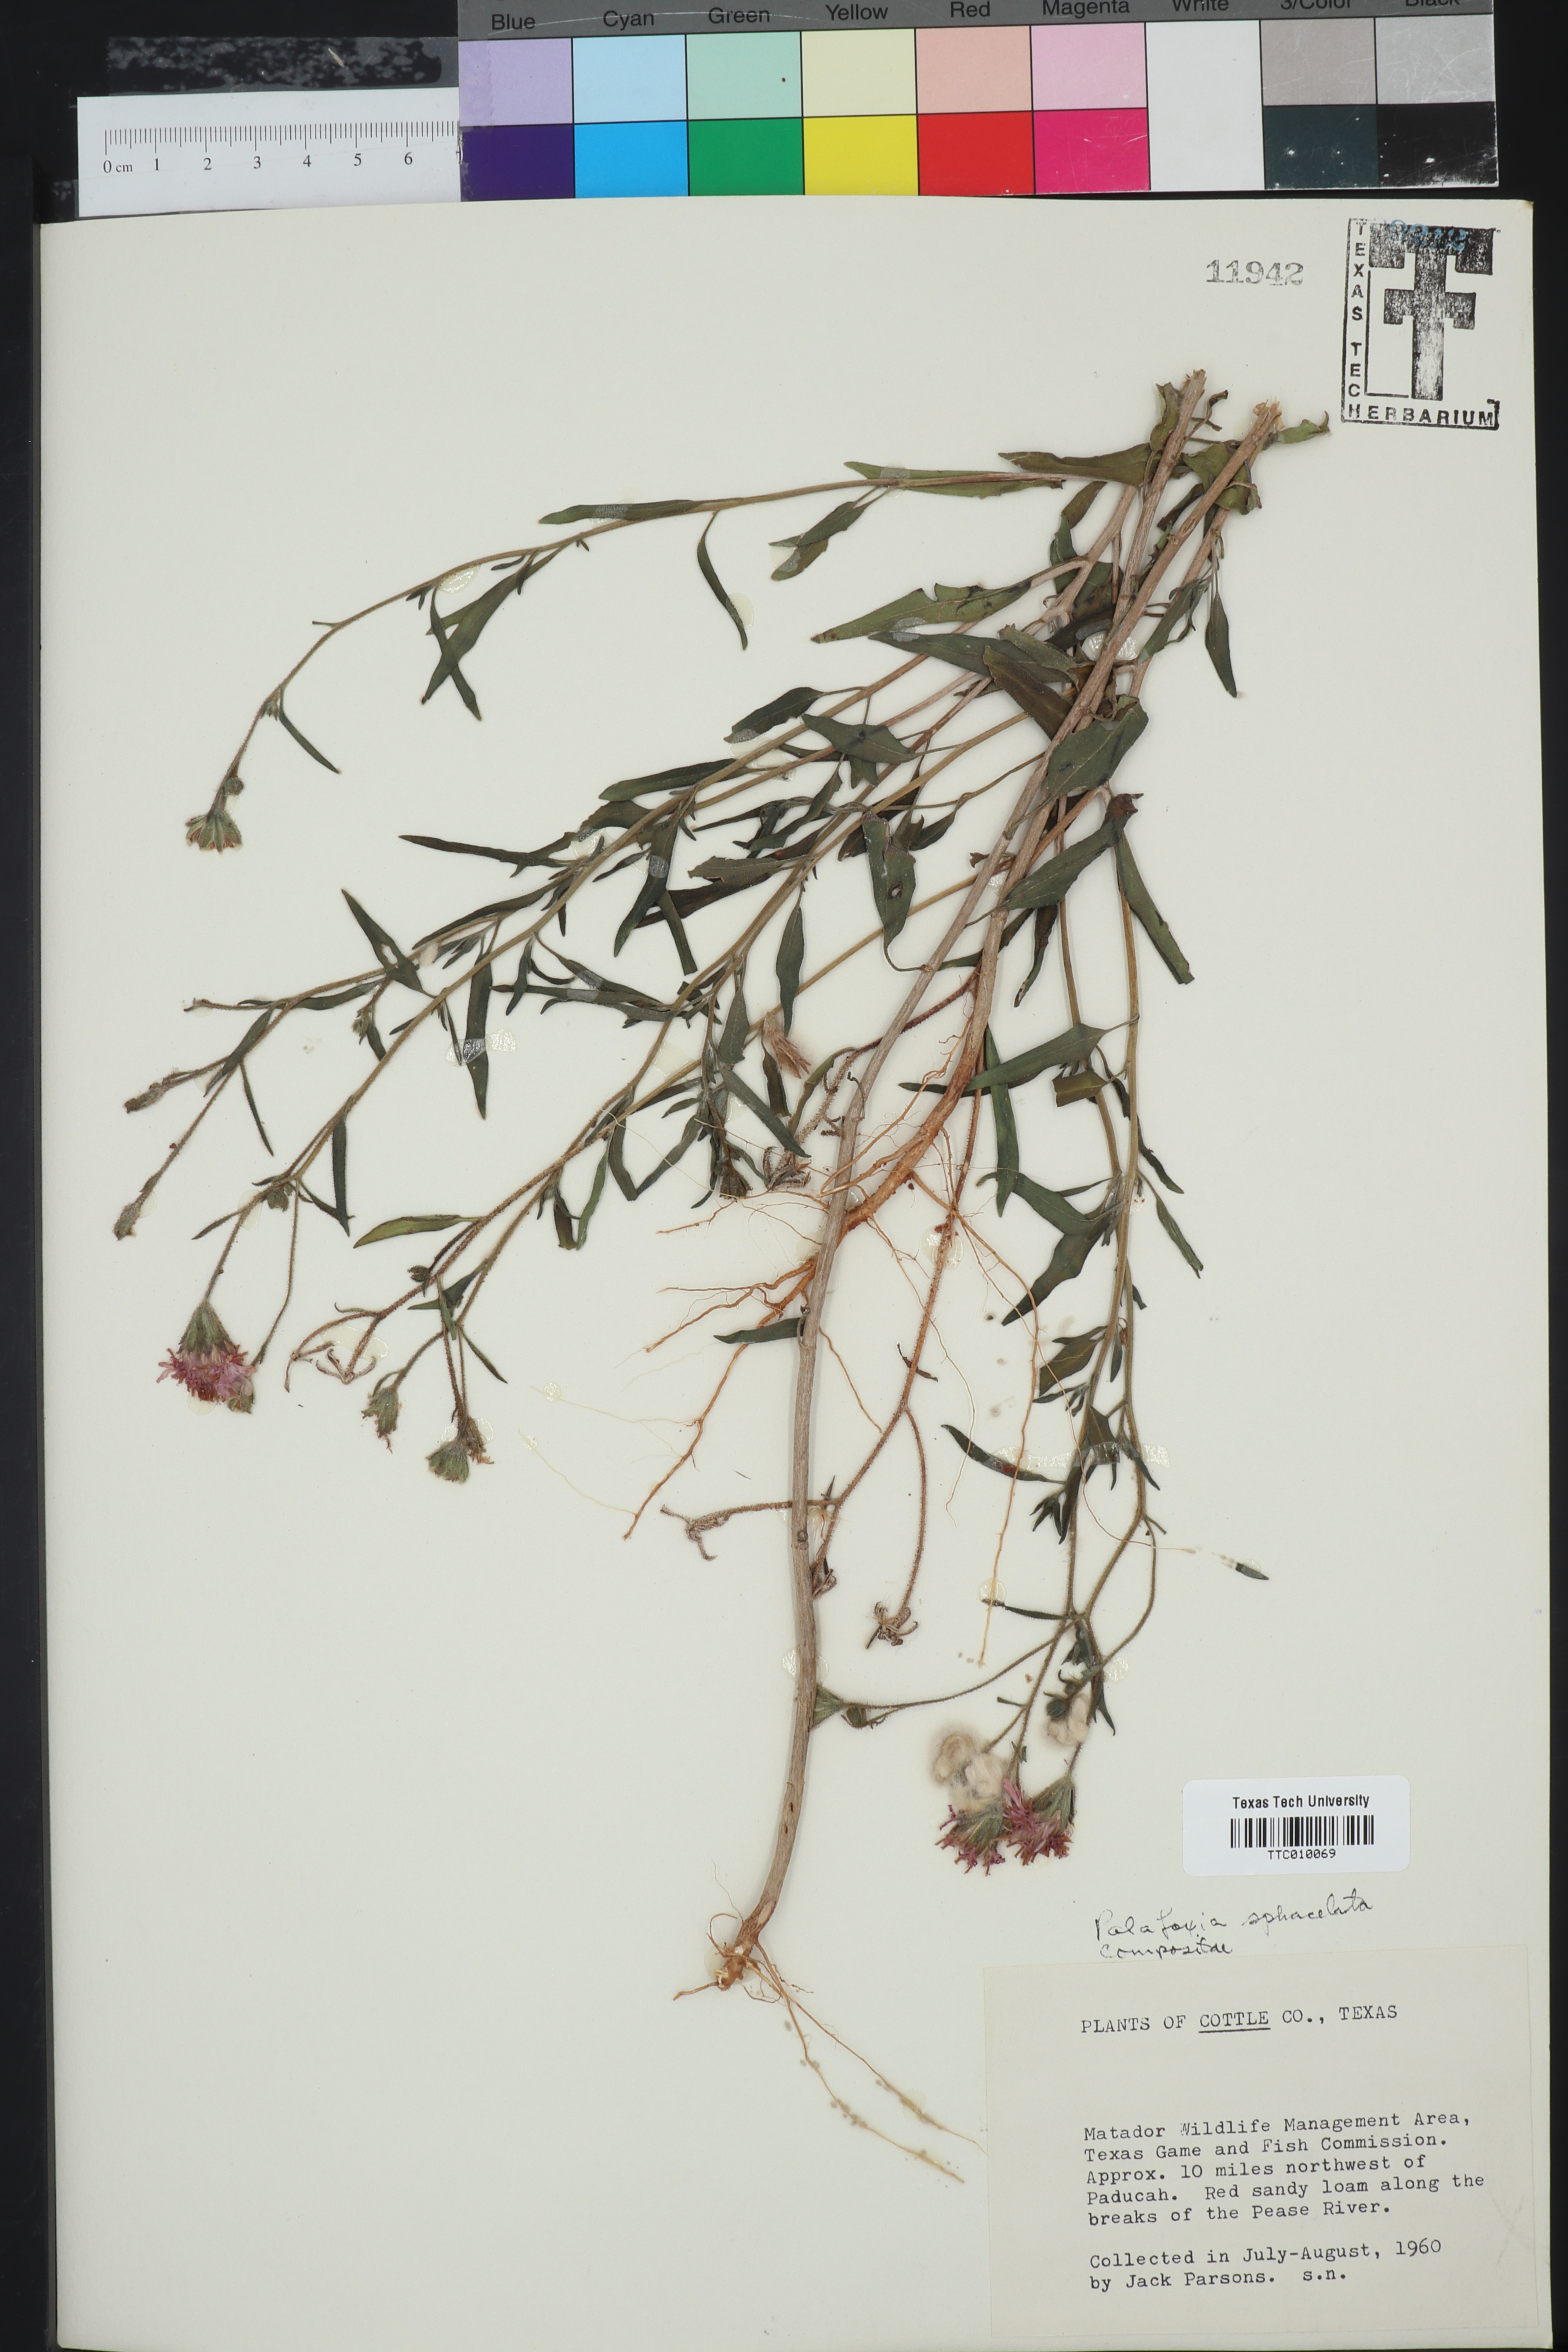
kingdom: Plantae
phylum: Tracheophyta
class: Magnoliopsida
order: Asterales
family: Asteraceae
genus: Palafoxia
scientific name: Palafoxia sphacelata
